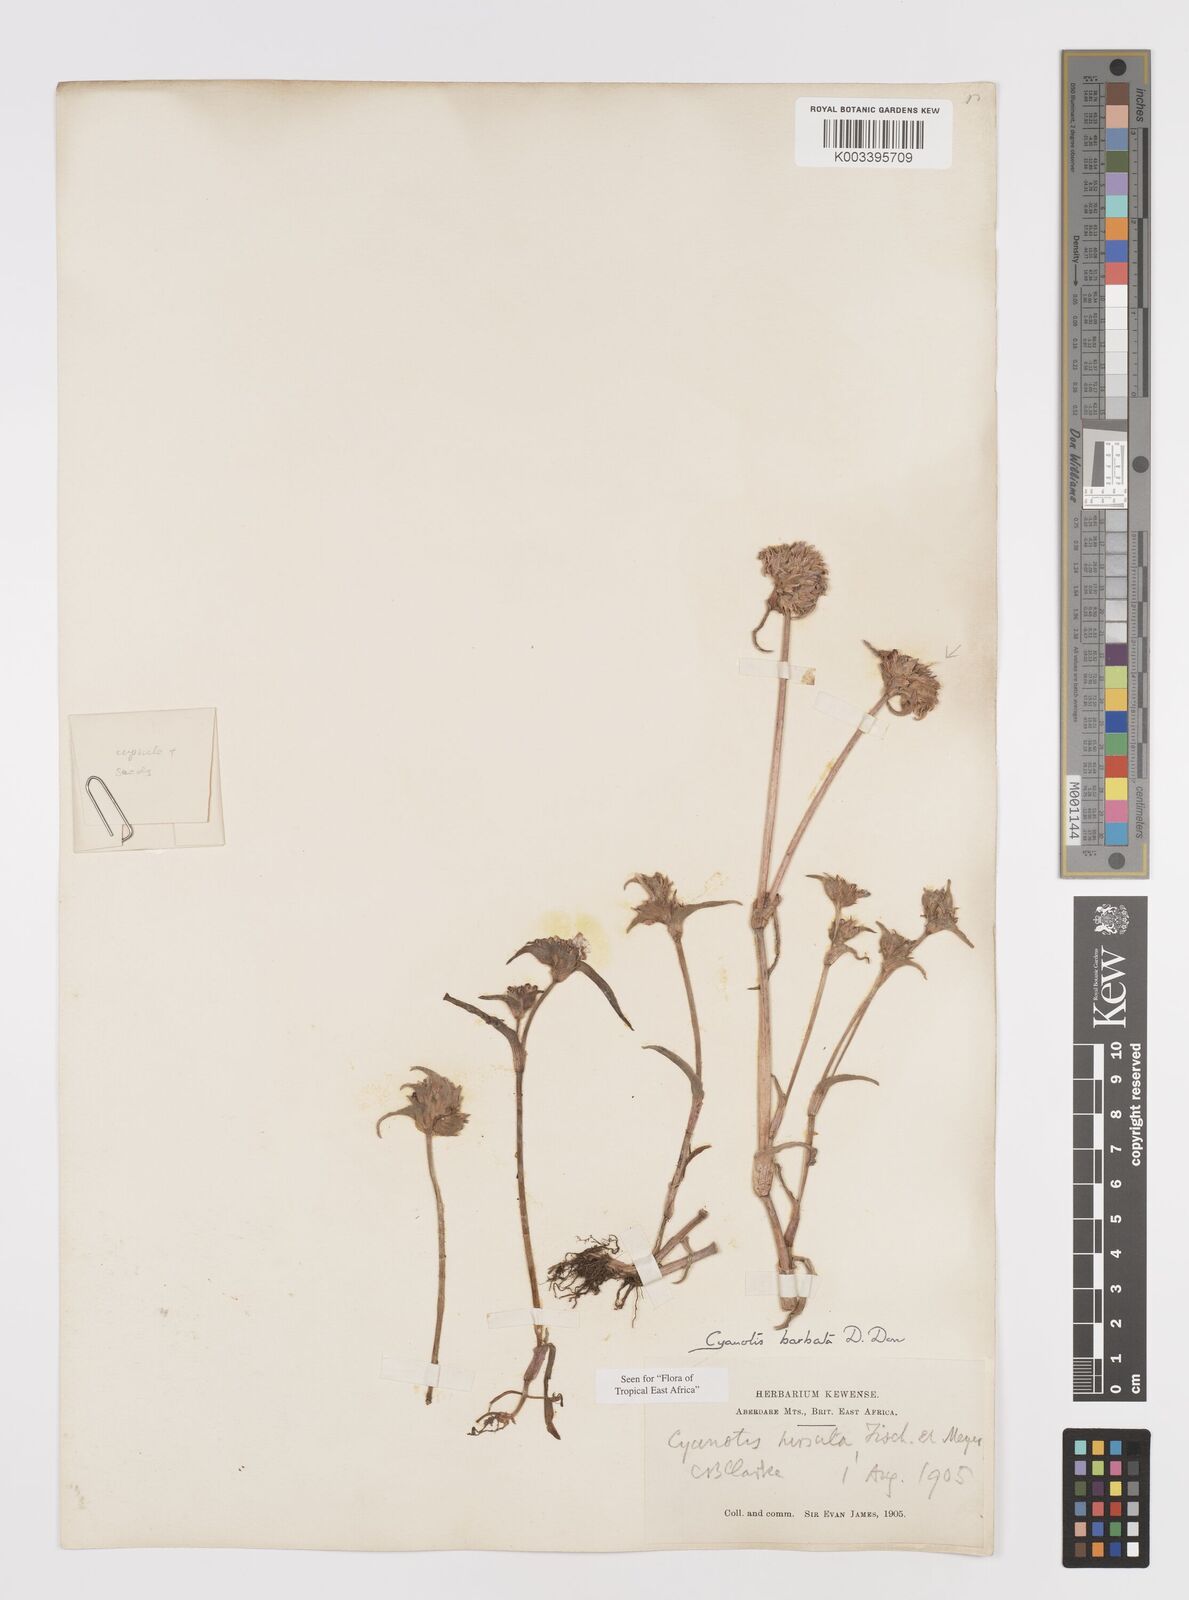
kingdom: Plantae
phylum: Tracheophyta
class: Liliopsida
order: Commelinales
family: Commelinaceae
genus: Cyanotis
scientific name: Cyanotis vaga
